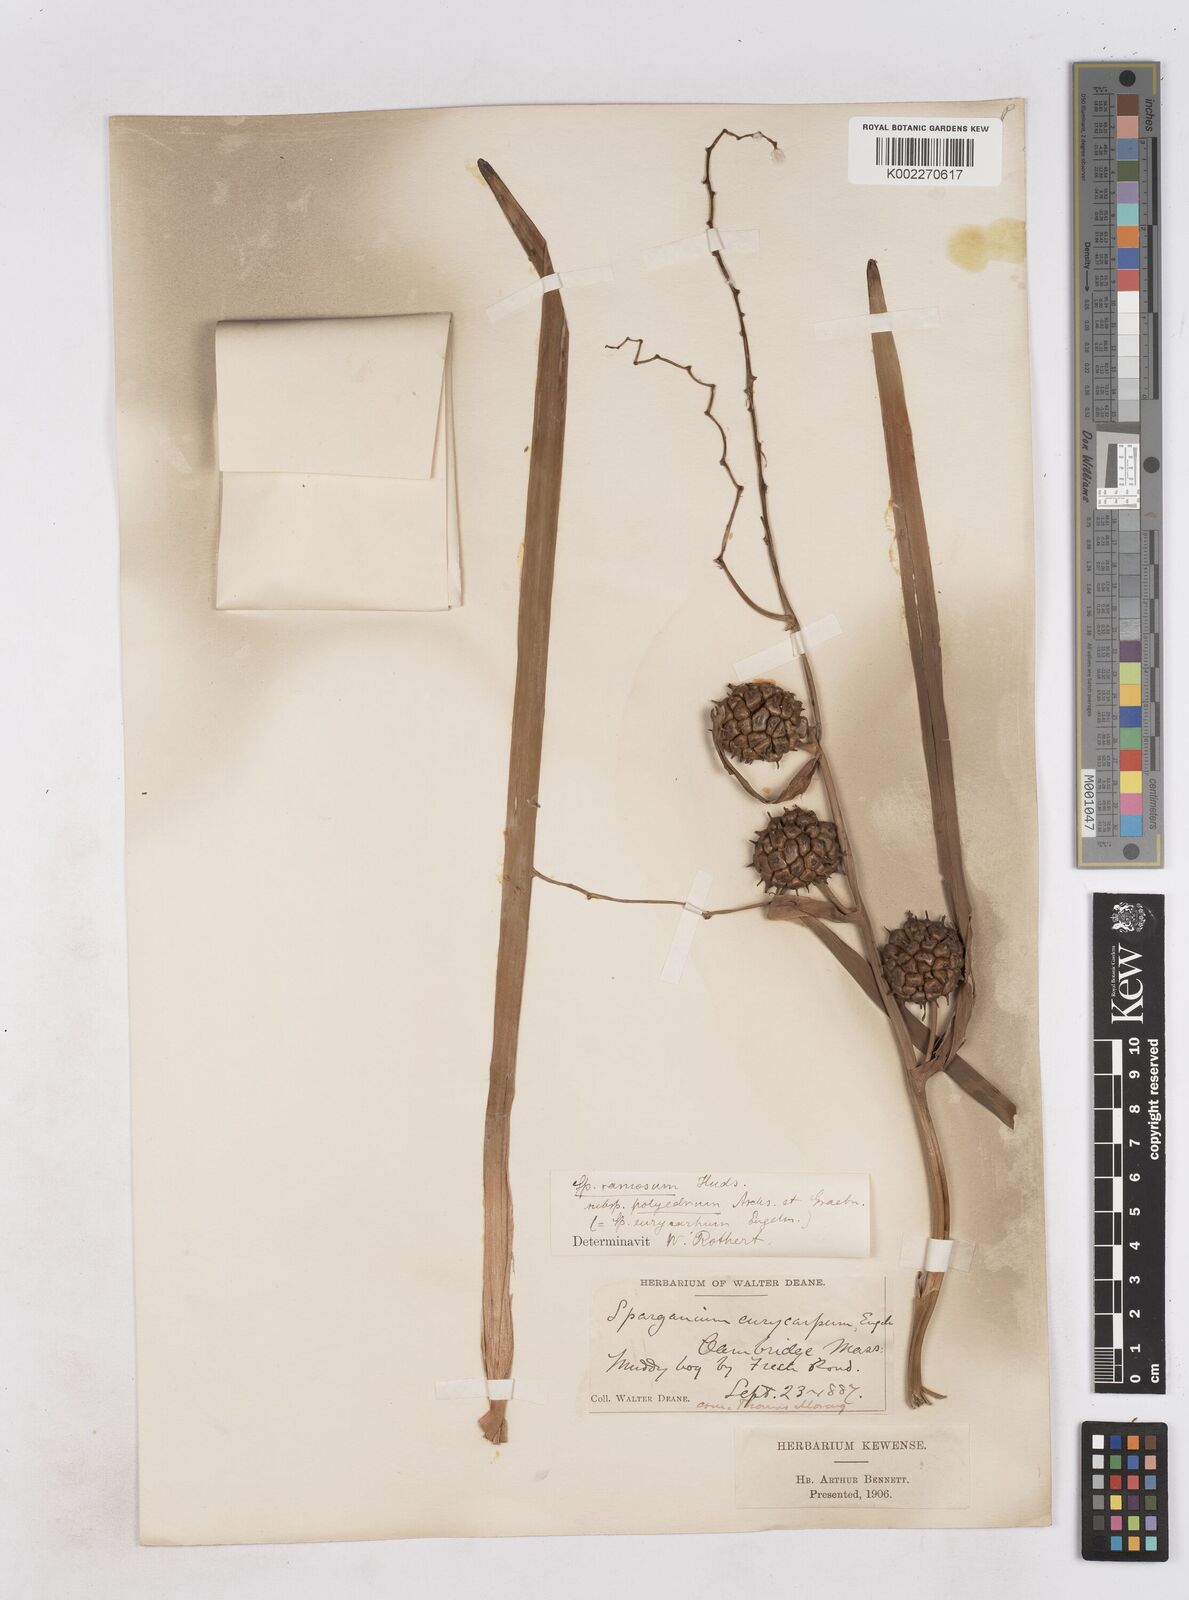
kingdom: Plantae
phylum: Tracheophyta
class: Liliopsida
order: Poales
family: Typhaceae
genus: Sparganium
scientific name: Sparganium eurycarpum
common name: Broad-fruited burreed
